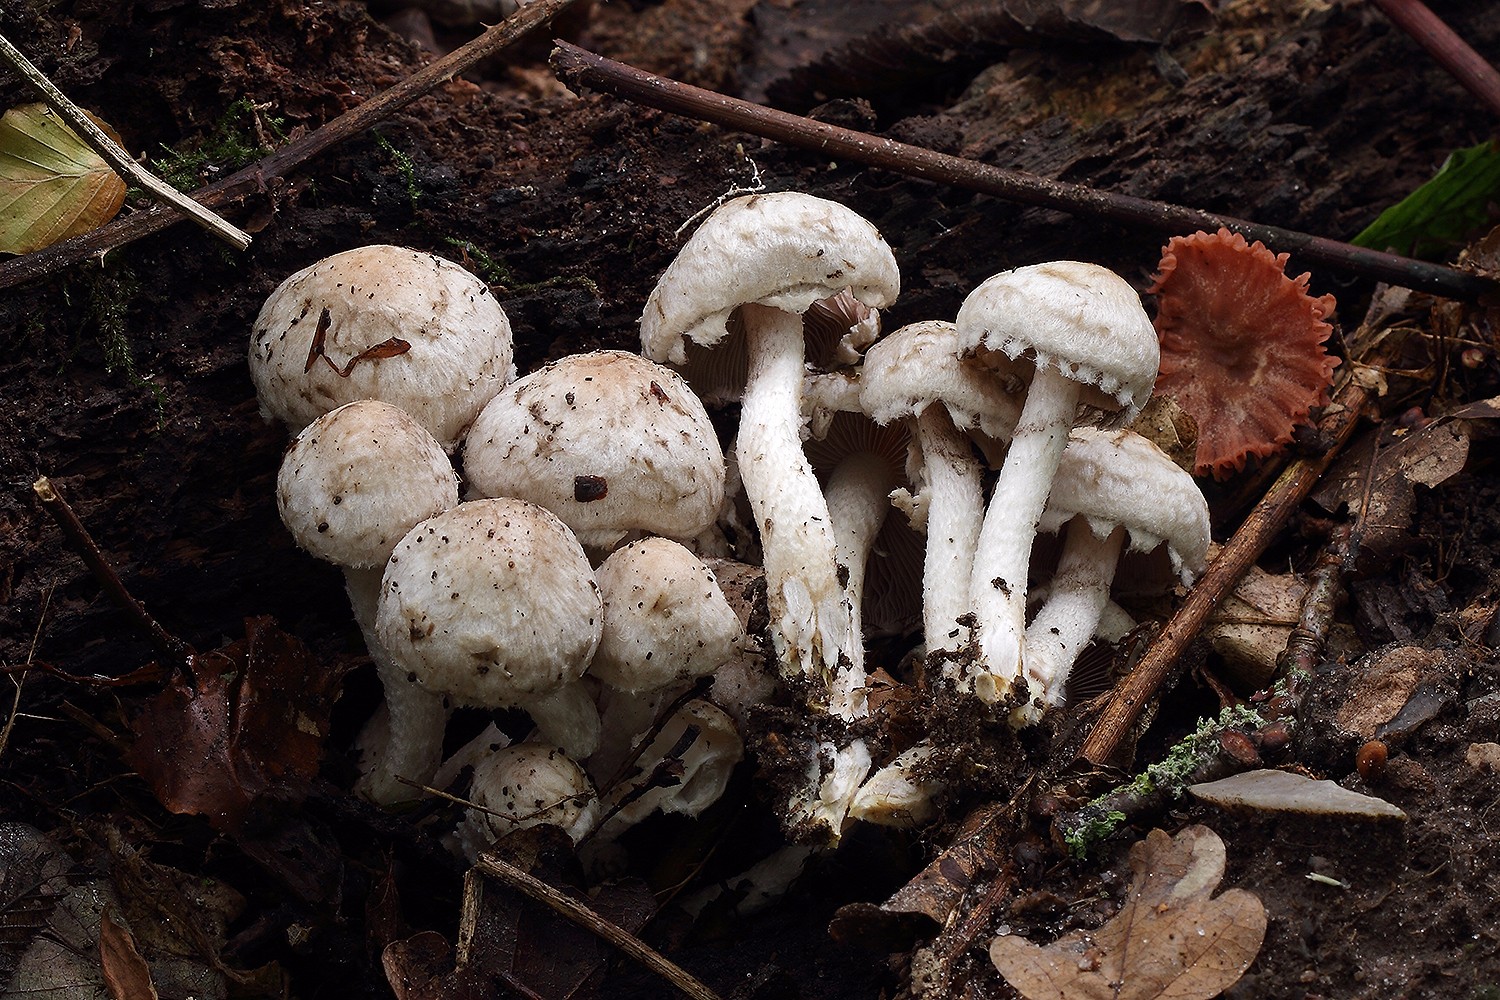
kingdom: Fungi
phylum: Basidiomycota
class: Agaricomycetes
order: Agaricales
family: Psathyrellaceae
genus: Psathyrella
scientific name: Psathyrella cotonea
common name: skællet mørkhat
